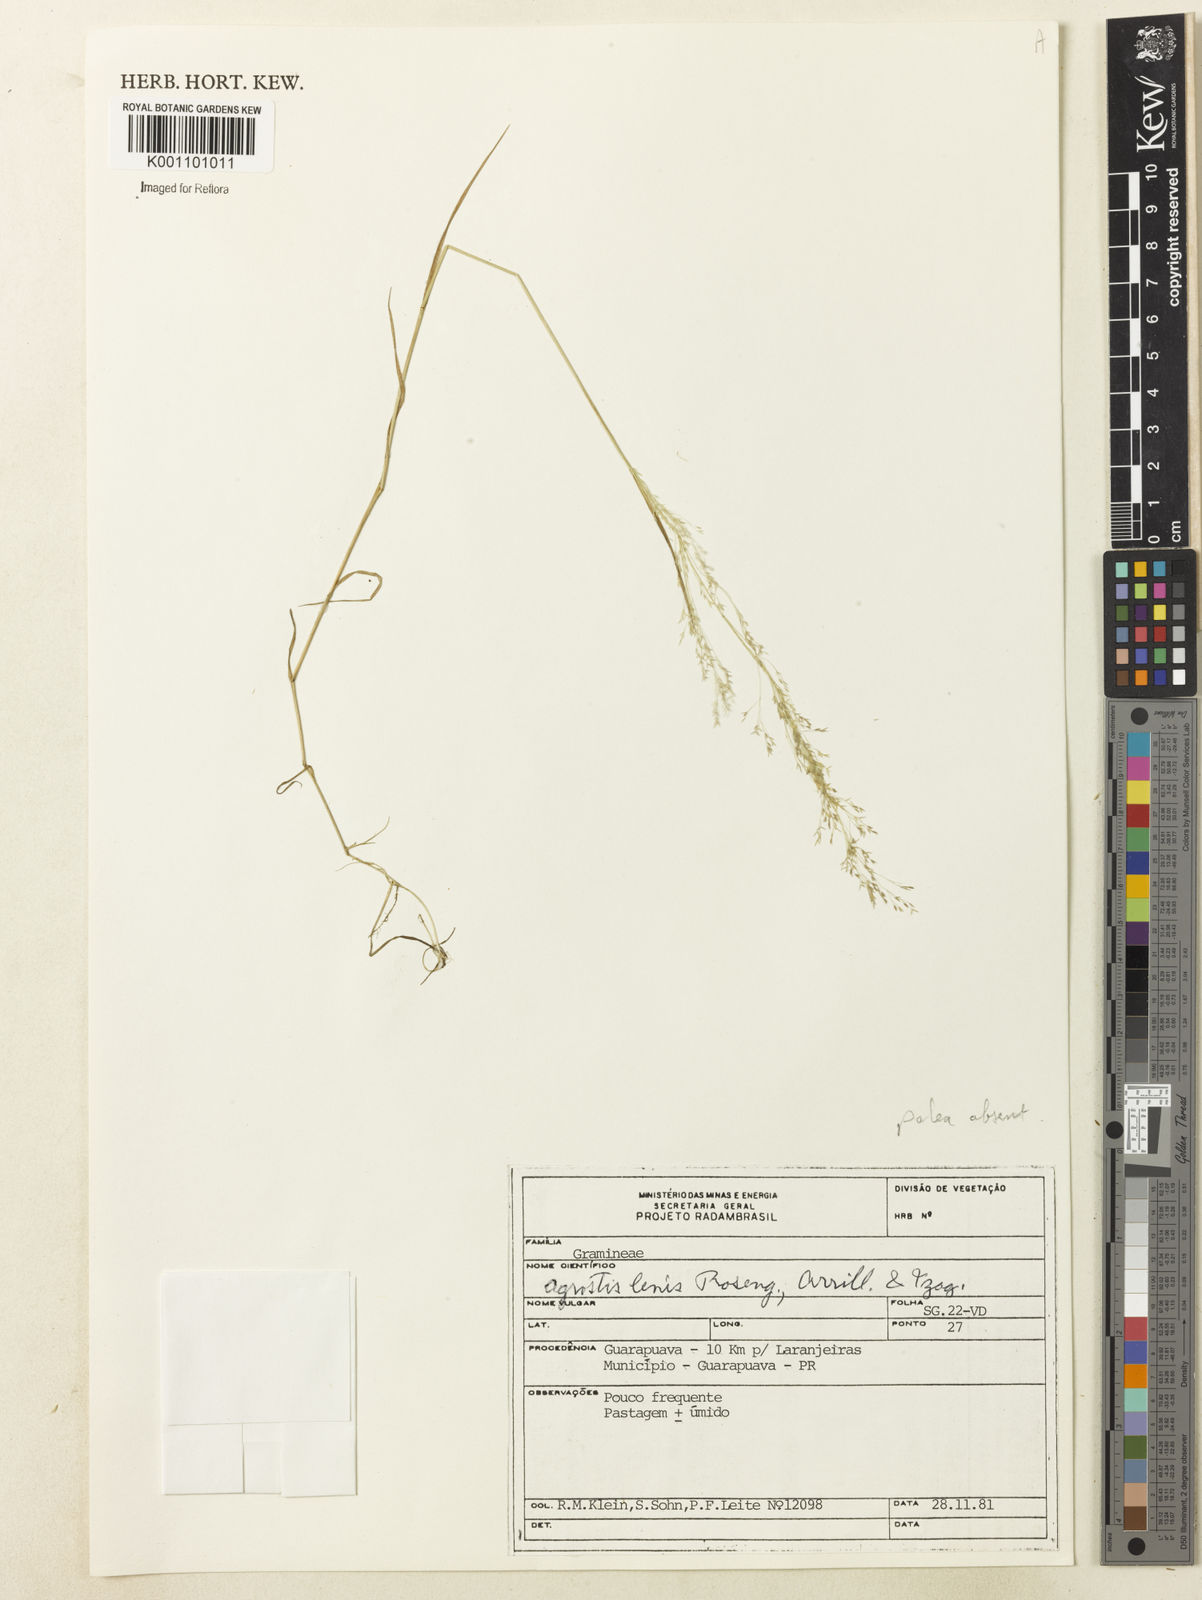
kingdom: Plantae
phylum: Tracheophyta
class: Liliopsida
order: Poales
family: Poaceae
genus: Agrostis
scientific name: Agrostis
